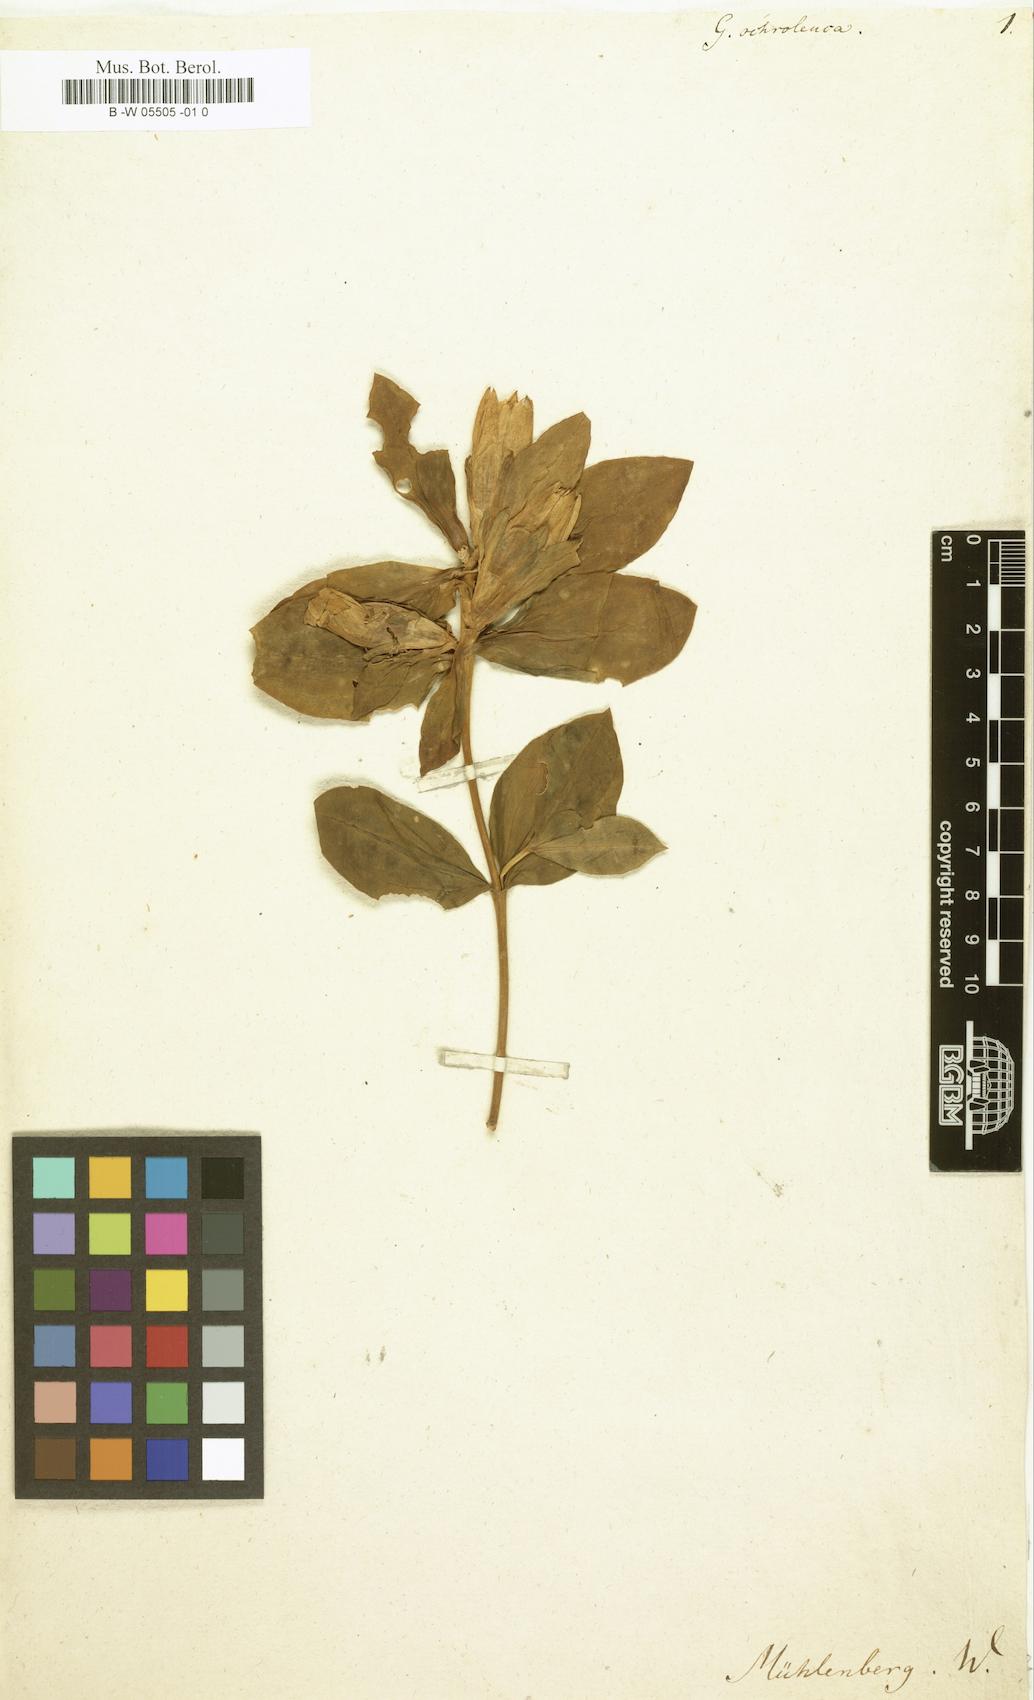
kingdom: Plantae
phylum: Tracheophyta
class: Magnoliopsida
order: Gentianales
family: Gentianaceae
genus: Gentiana
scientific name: Gentiana
